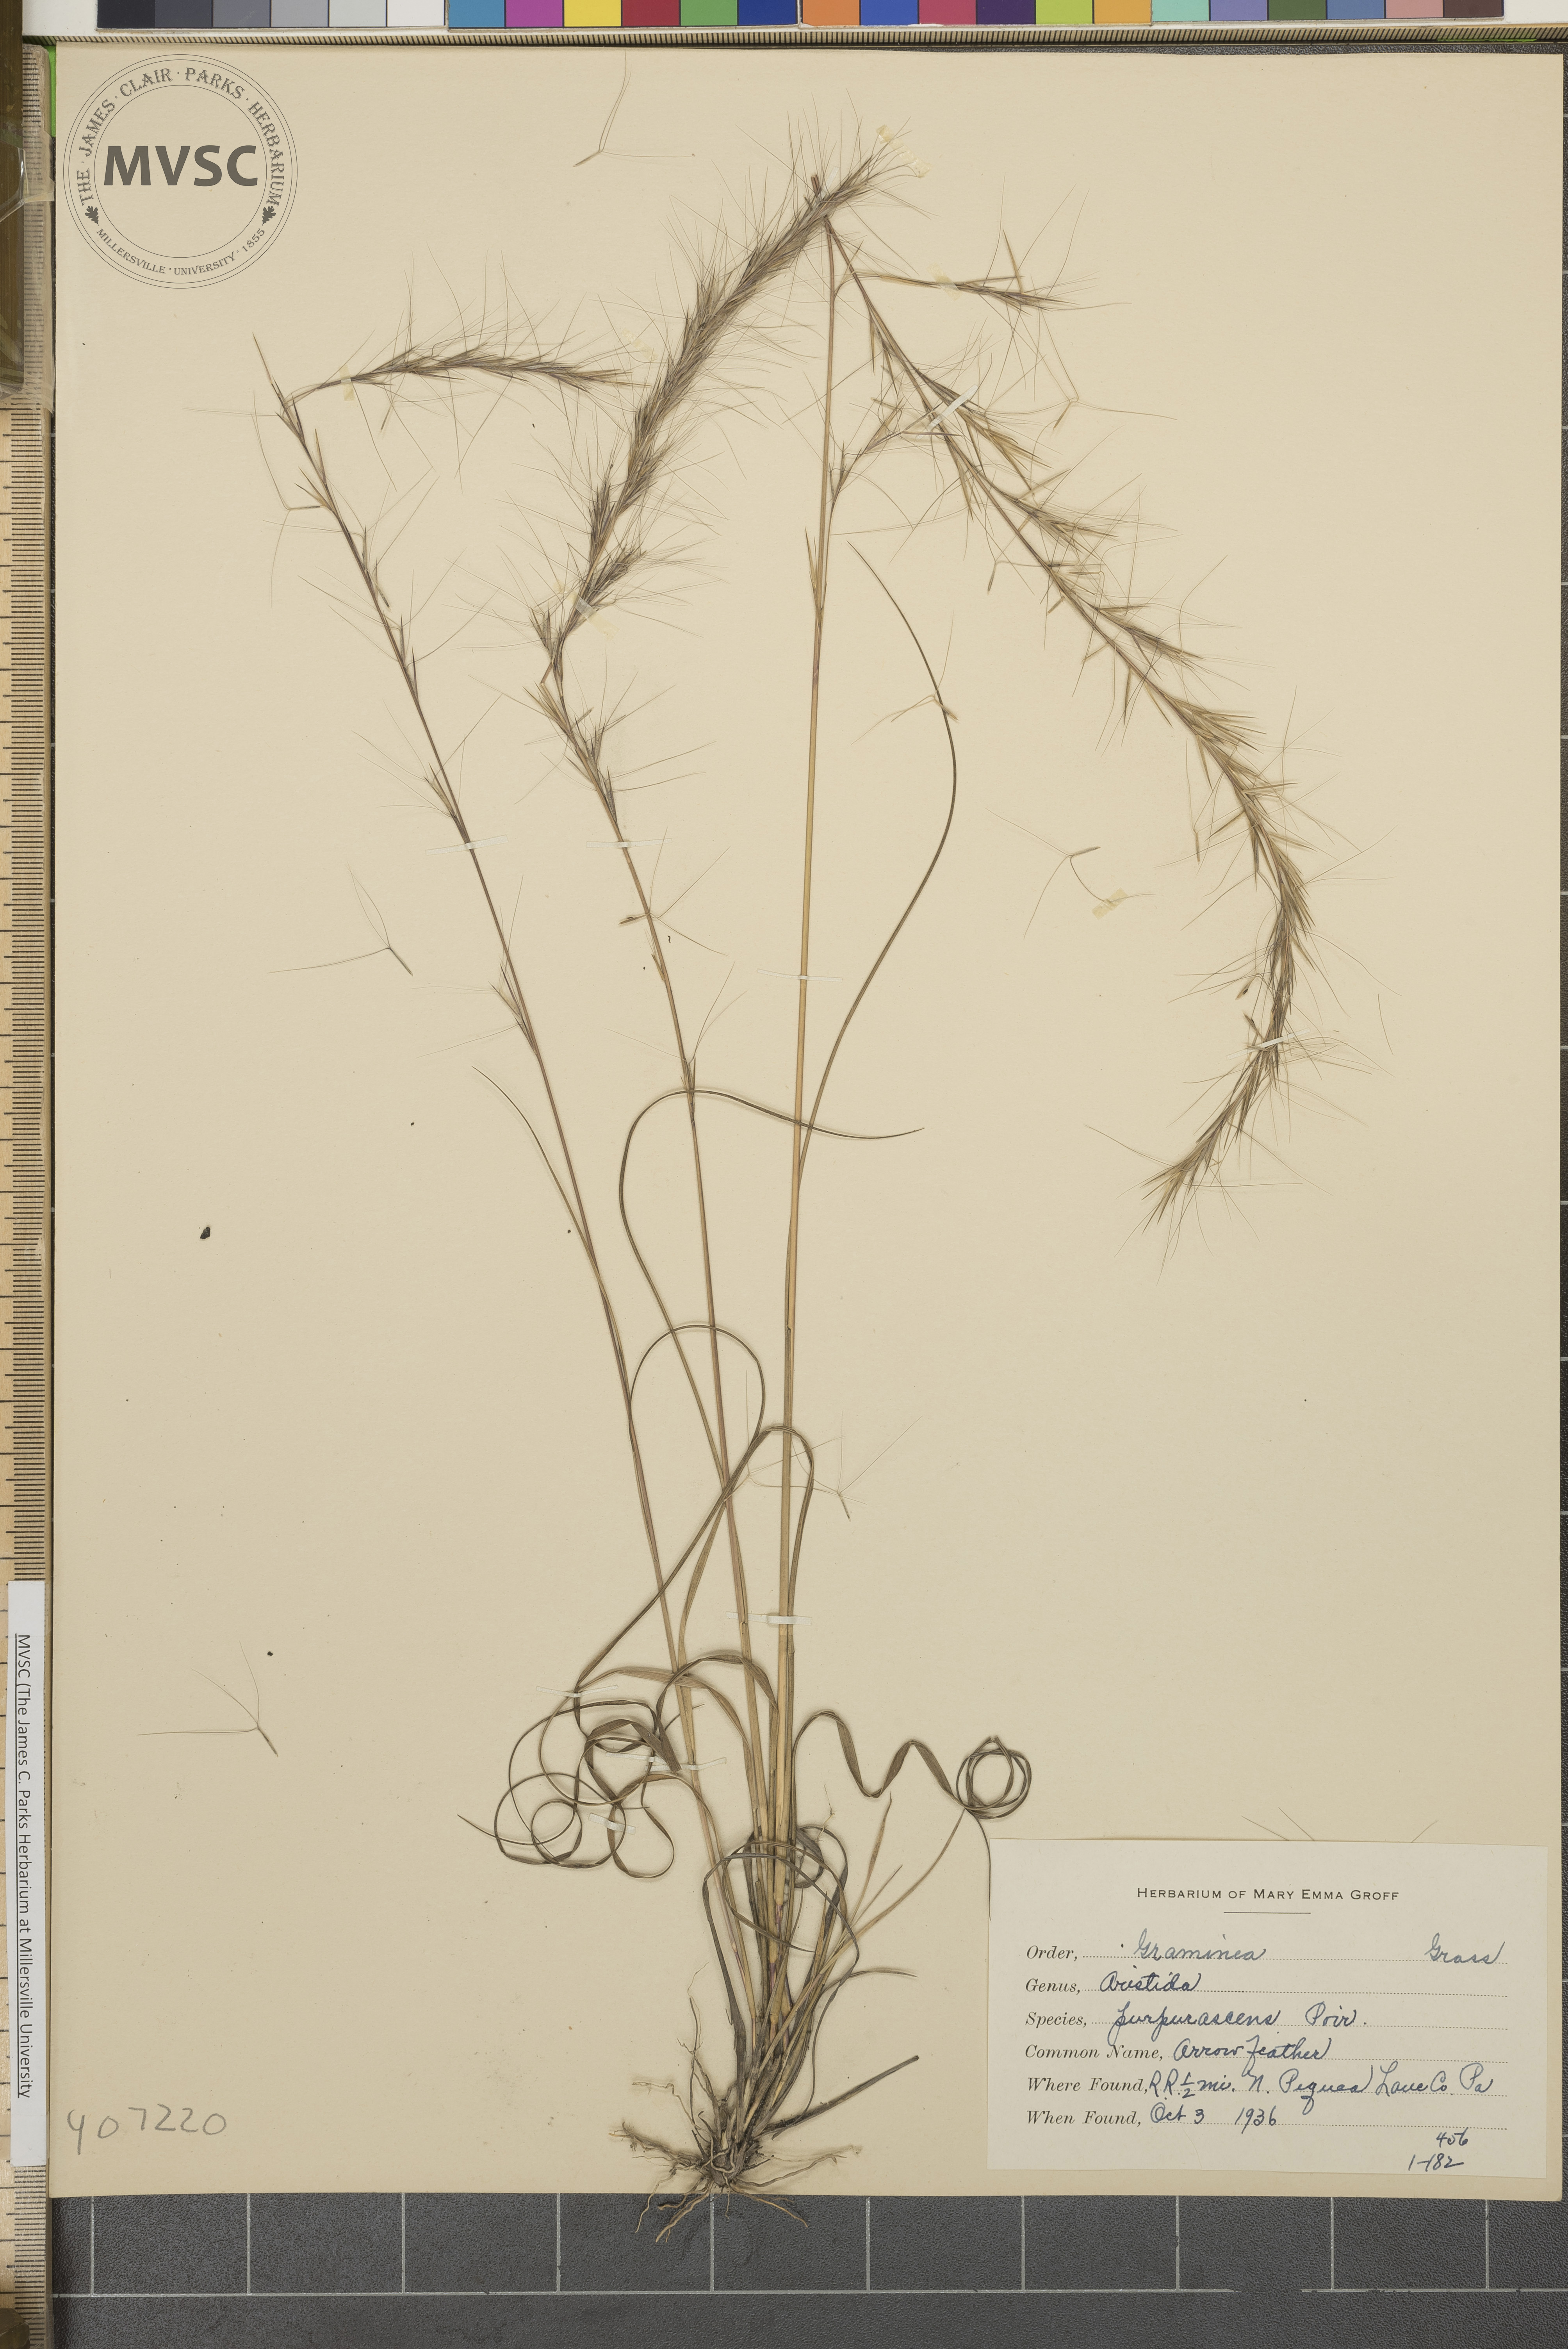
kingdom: Plantae
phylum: Tracheophyta
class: Liliopsida
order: Poales
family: Poaceae
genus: Aristida
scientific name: Aristida purpurascens
